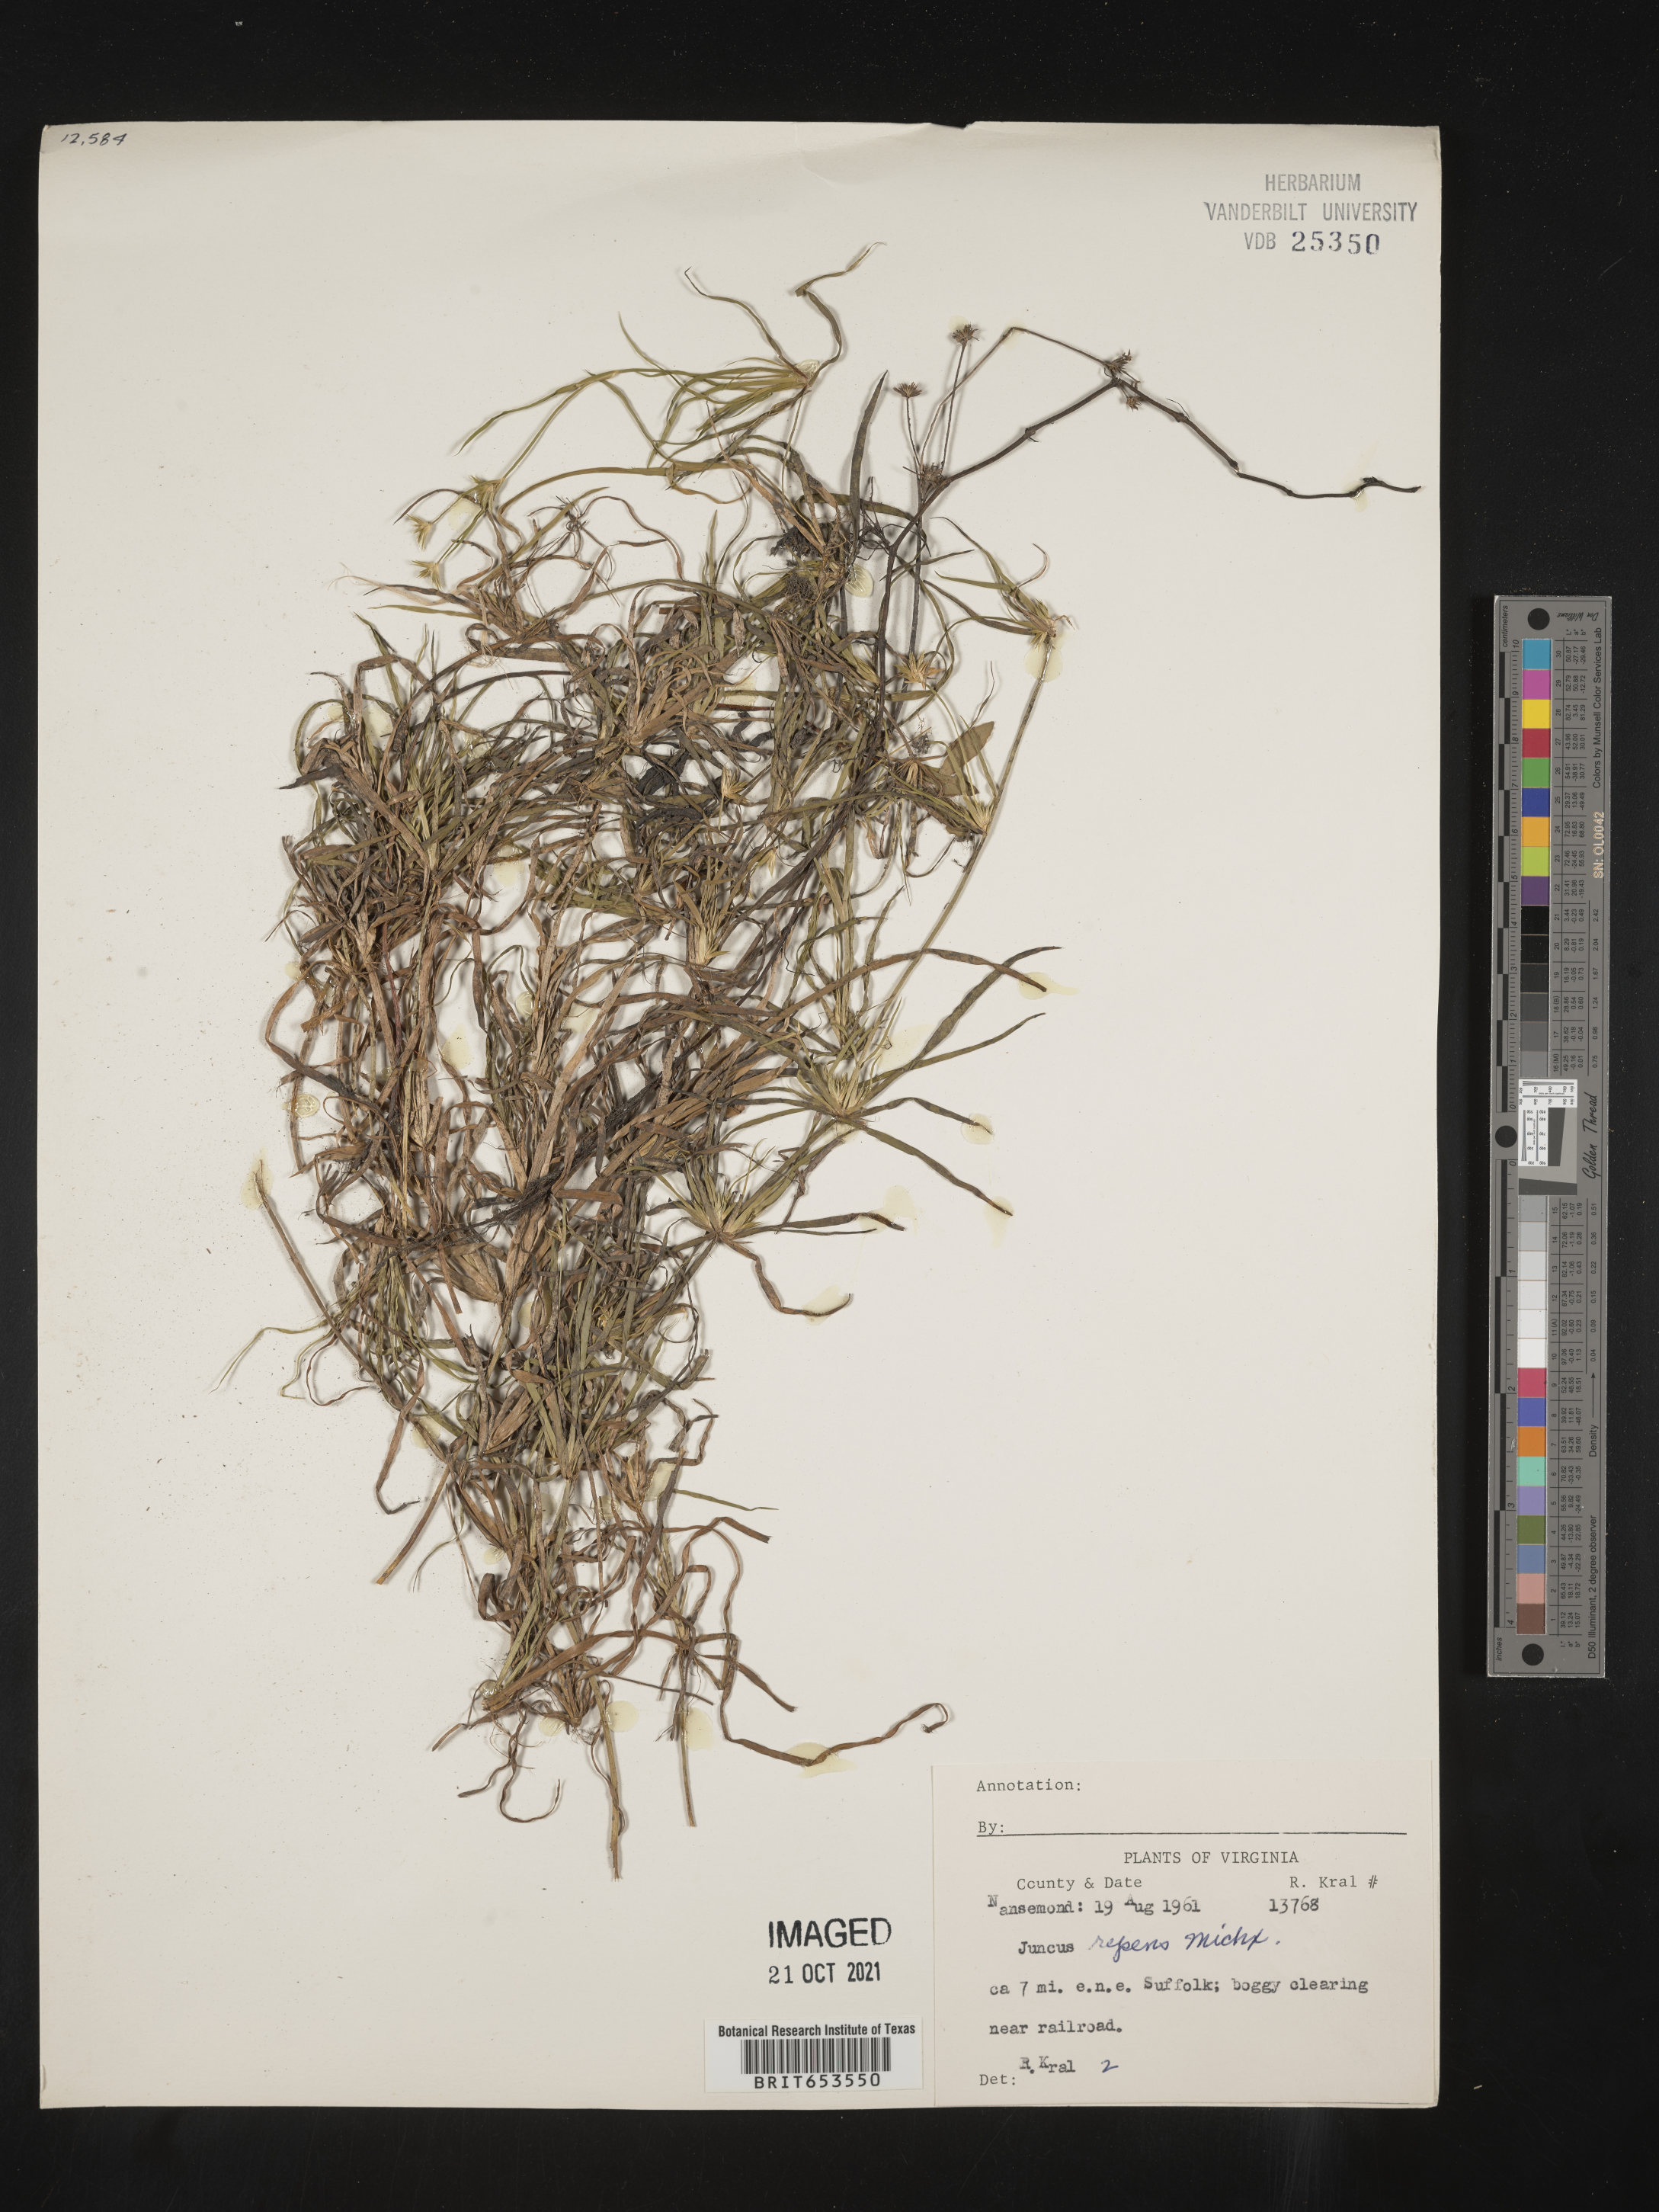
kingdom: Plantae
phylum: Tracheophyta
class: Liliopsida
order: Poales
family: Juncaceae
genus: Juncus
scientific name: Juncus repens
